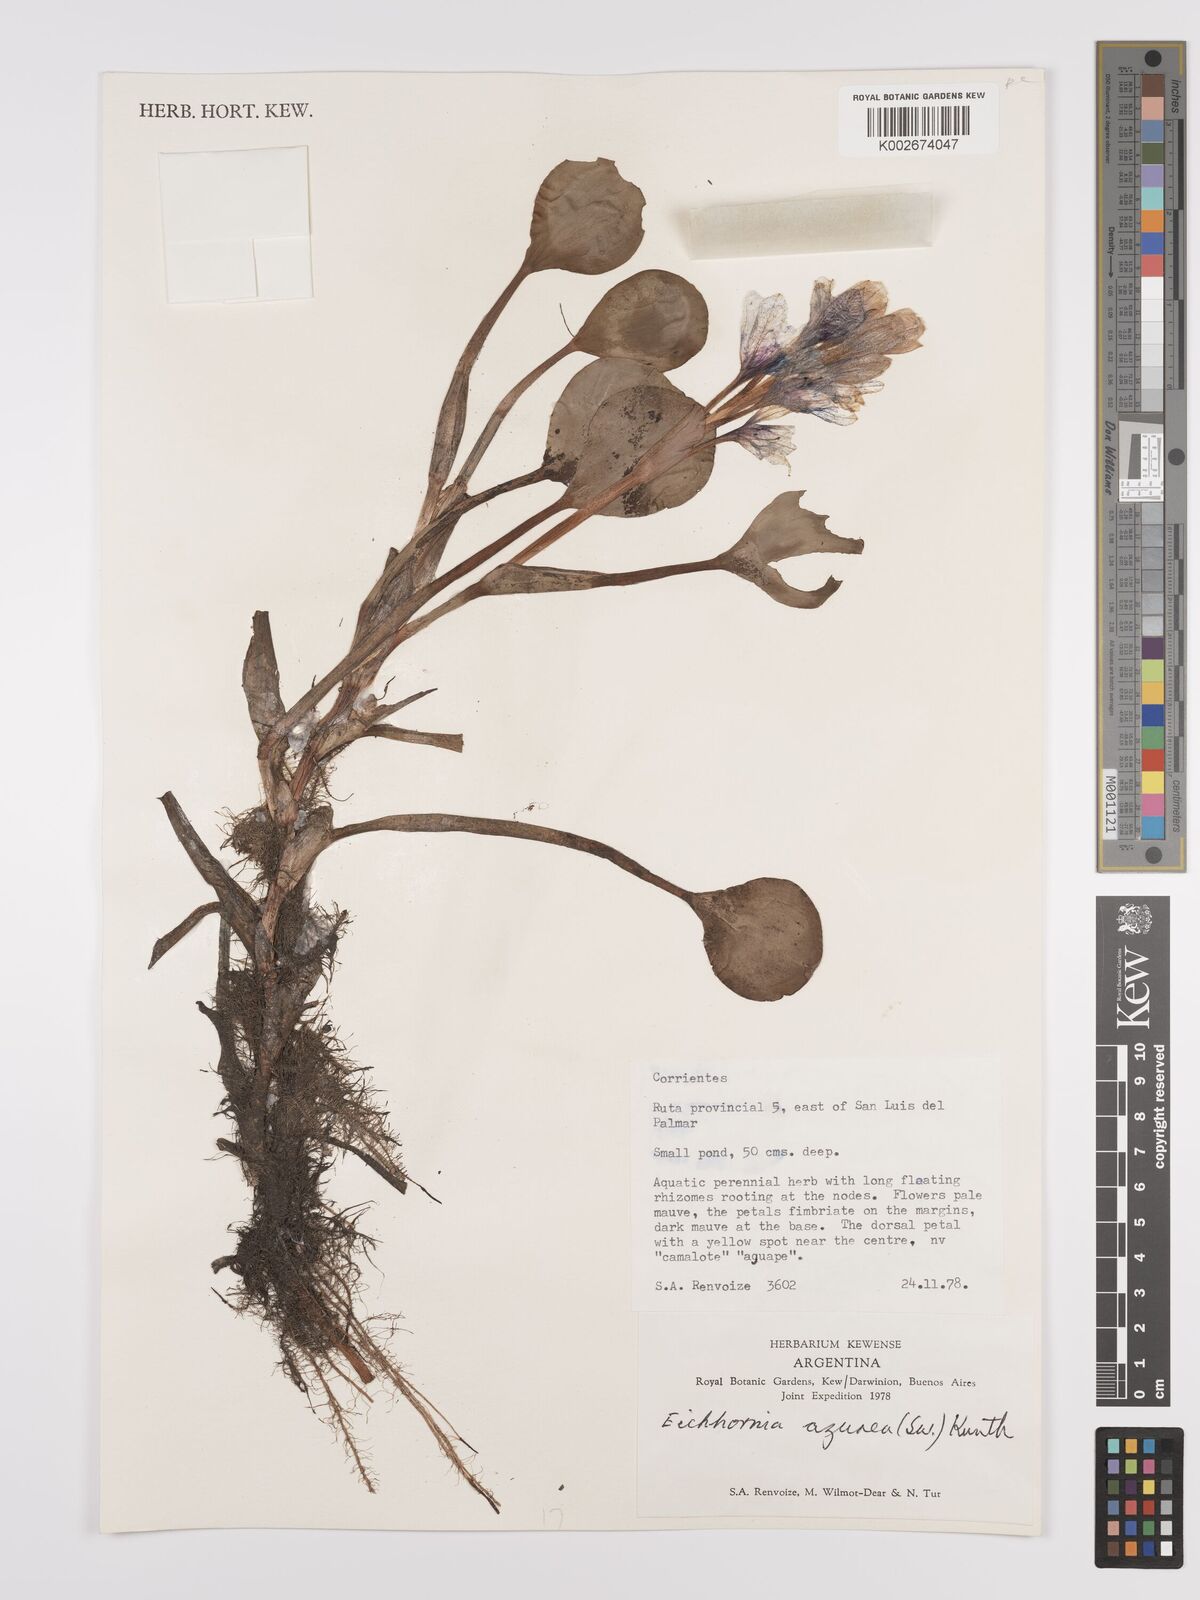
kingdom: Plantae
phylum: Tracheophyta
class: Liliopsida
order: Commelinales
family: Pontederiaceae
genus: Pontederia
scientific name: Pontederia azurea
